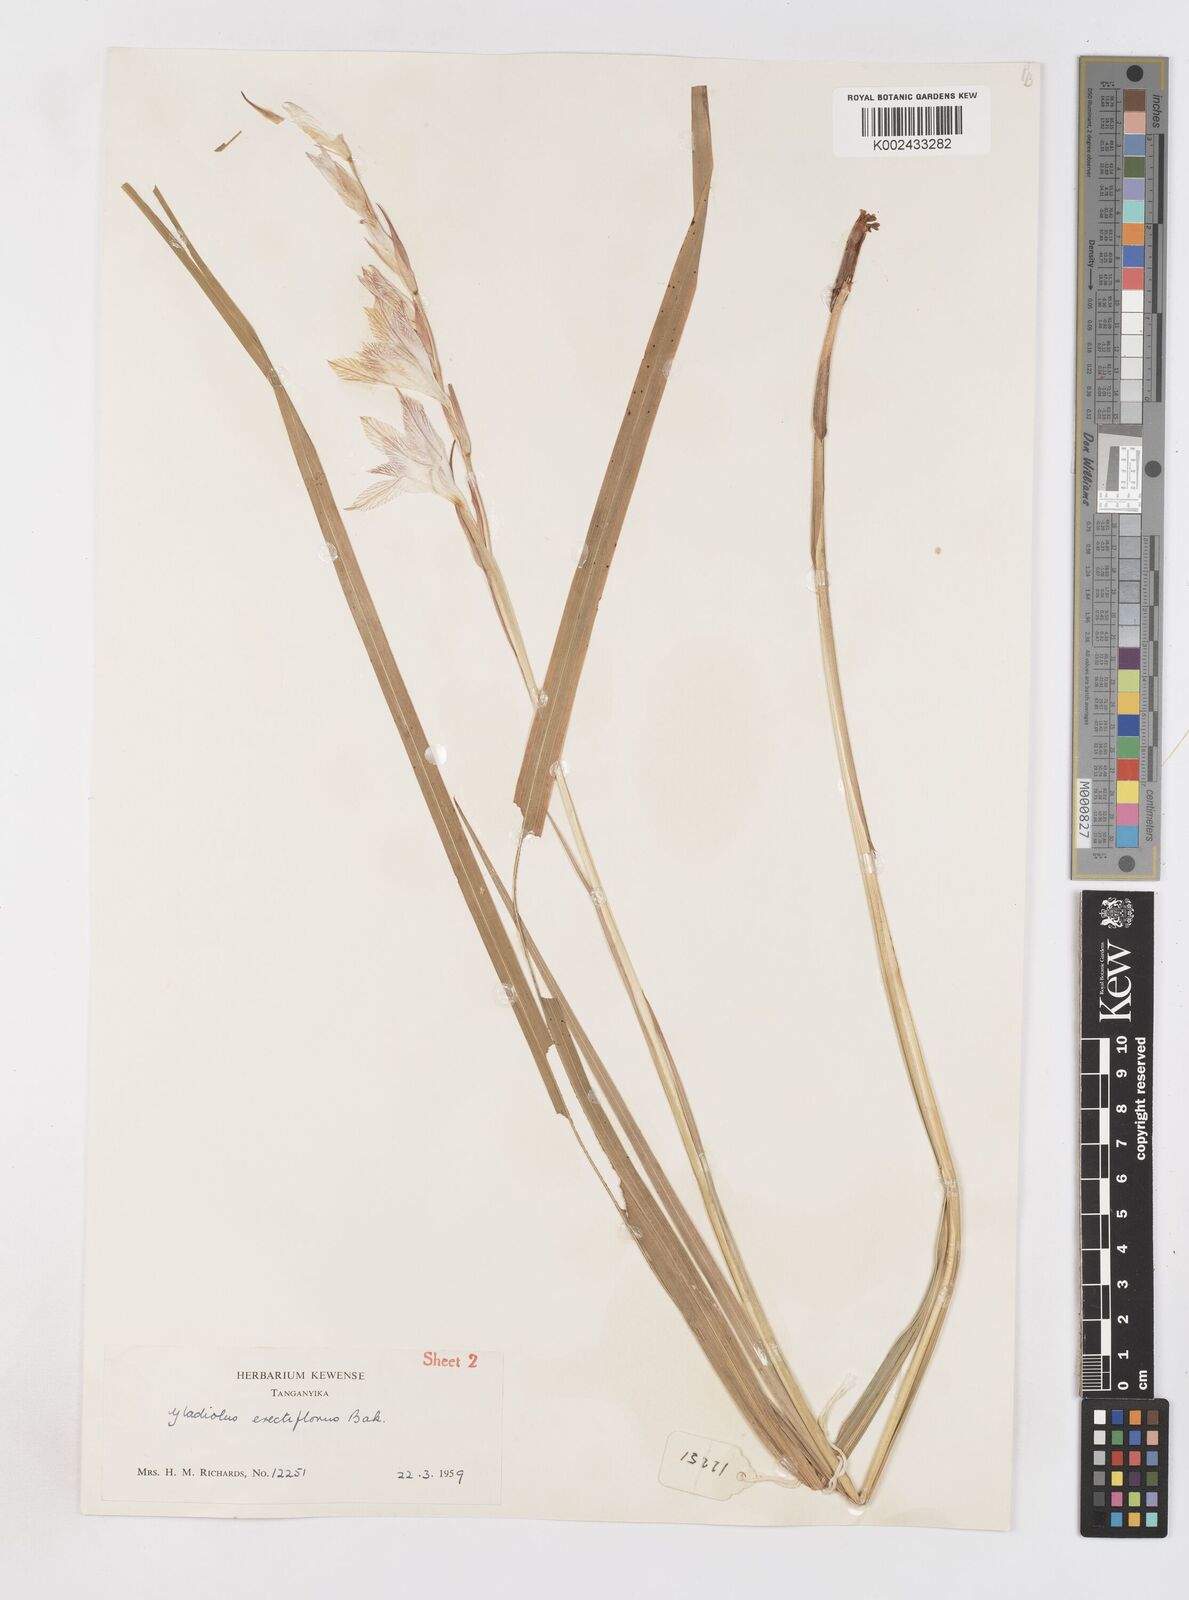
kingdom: Plantae
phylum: Tracheophyta
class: Liliopsida
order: Asparagales
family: Iridaceae
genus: Gladiolus
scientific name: Gladiolus erectiflorus
